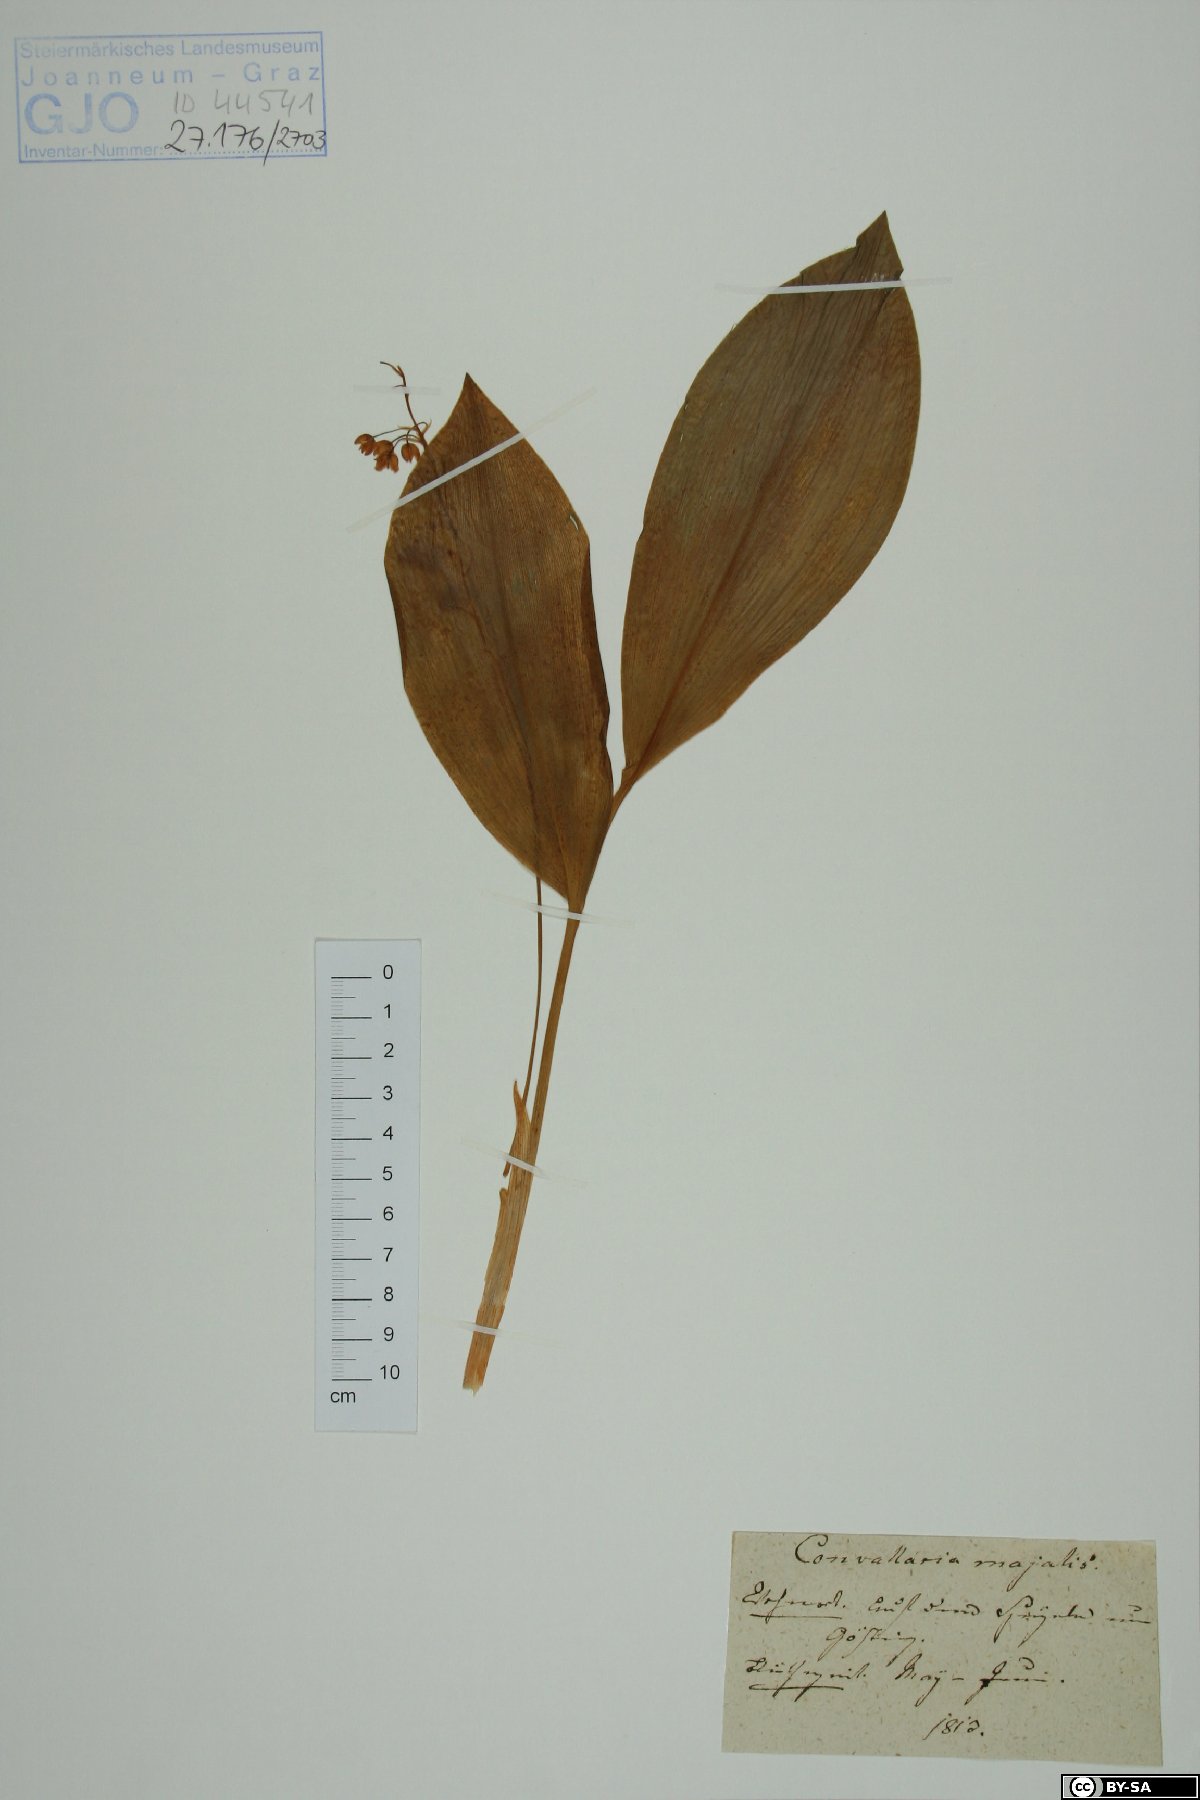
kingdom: Plantae
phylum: Tracheophyta
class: Liliopsida
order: Asparagales
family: Asparagaceae
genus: Convallaria
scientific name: Convallaria majalis
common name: Lily-of-the-valley
